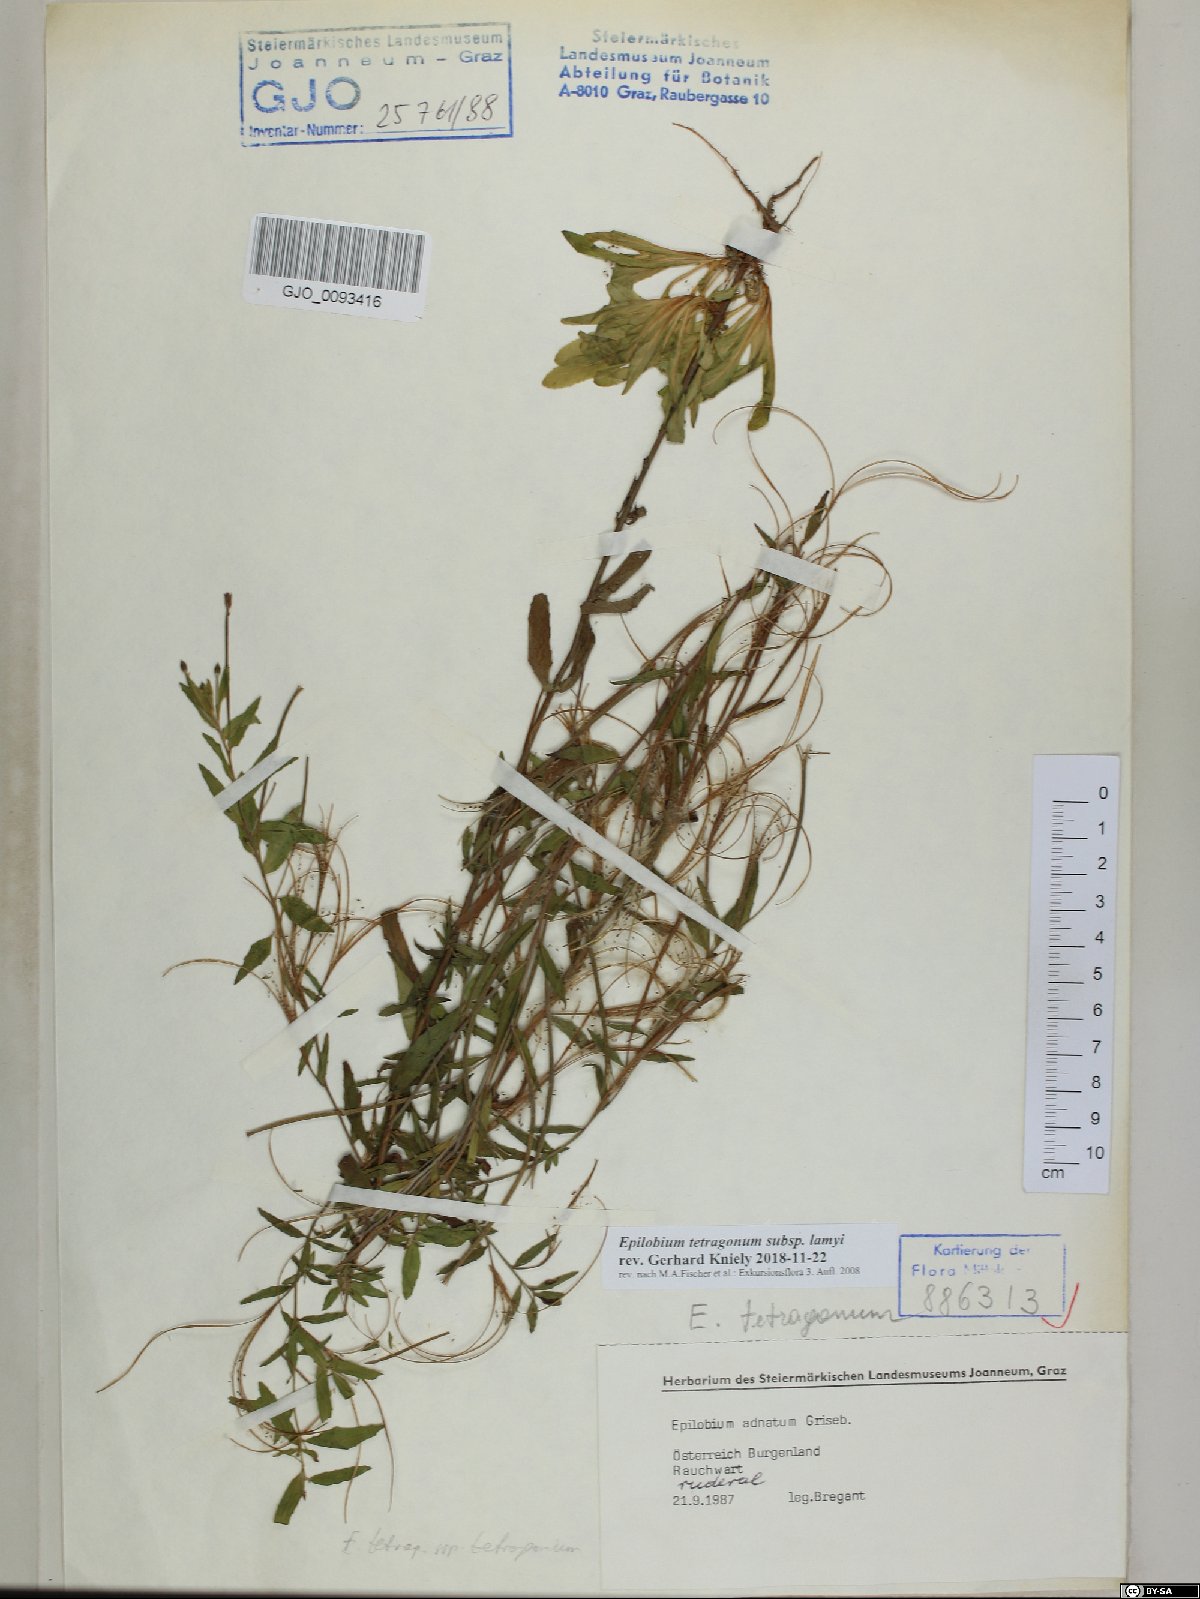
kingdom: Plantae
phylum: Tracheophyta
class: Magnoliopsida
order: Myrtales
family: Onagraceae
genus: Epilobium
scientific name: Epilobium lamyi
